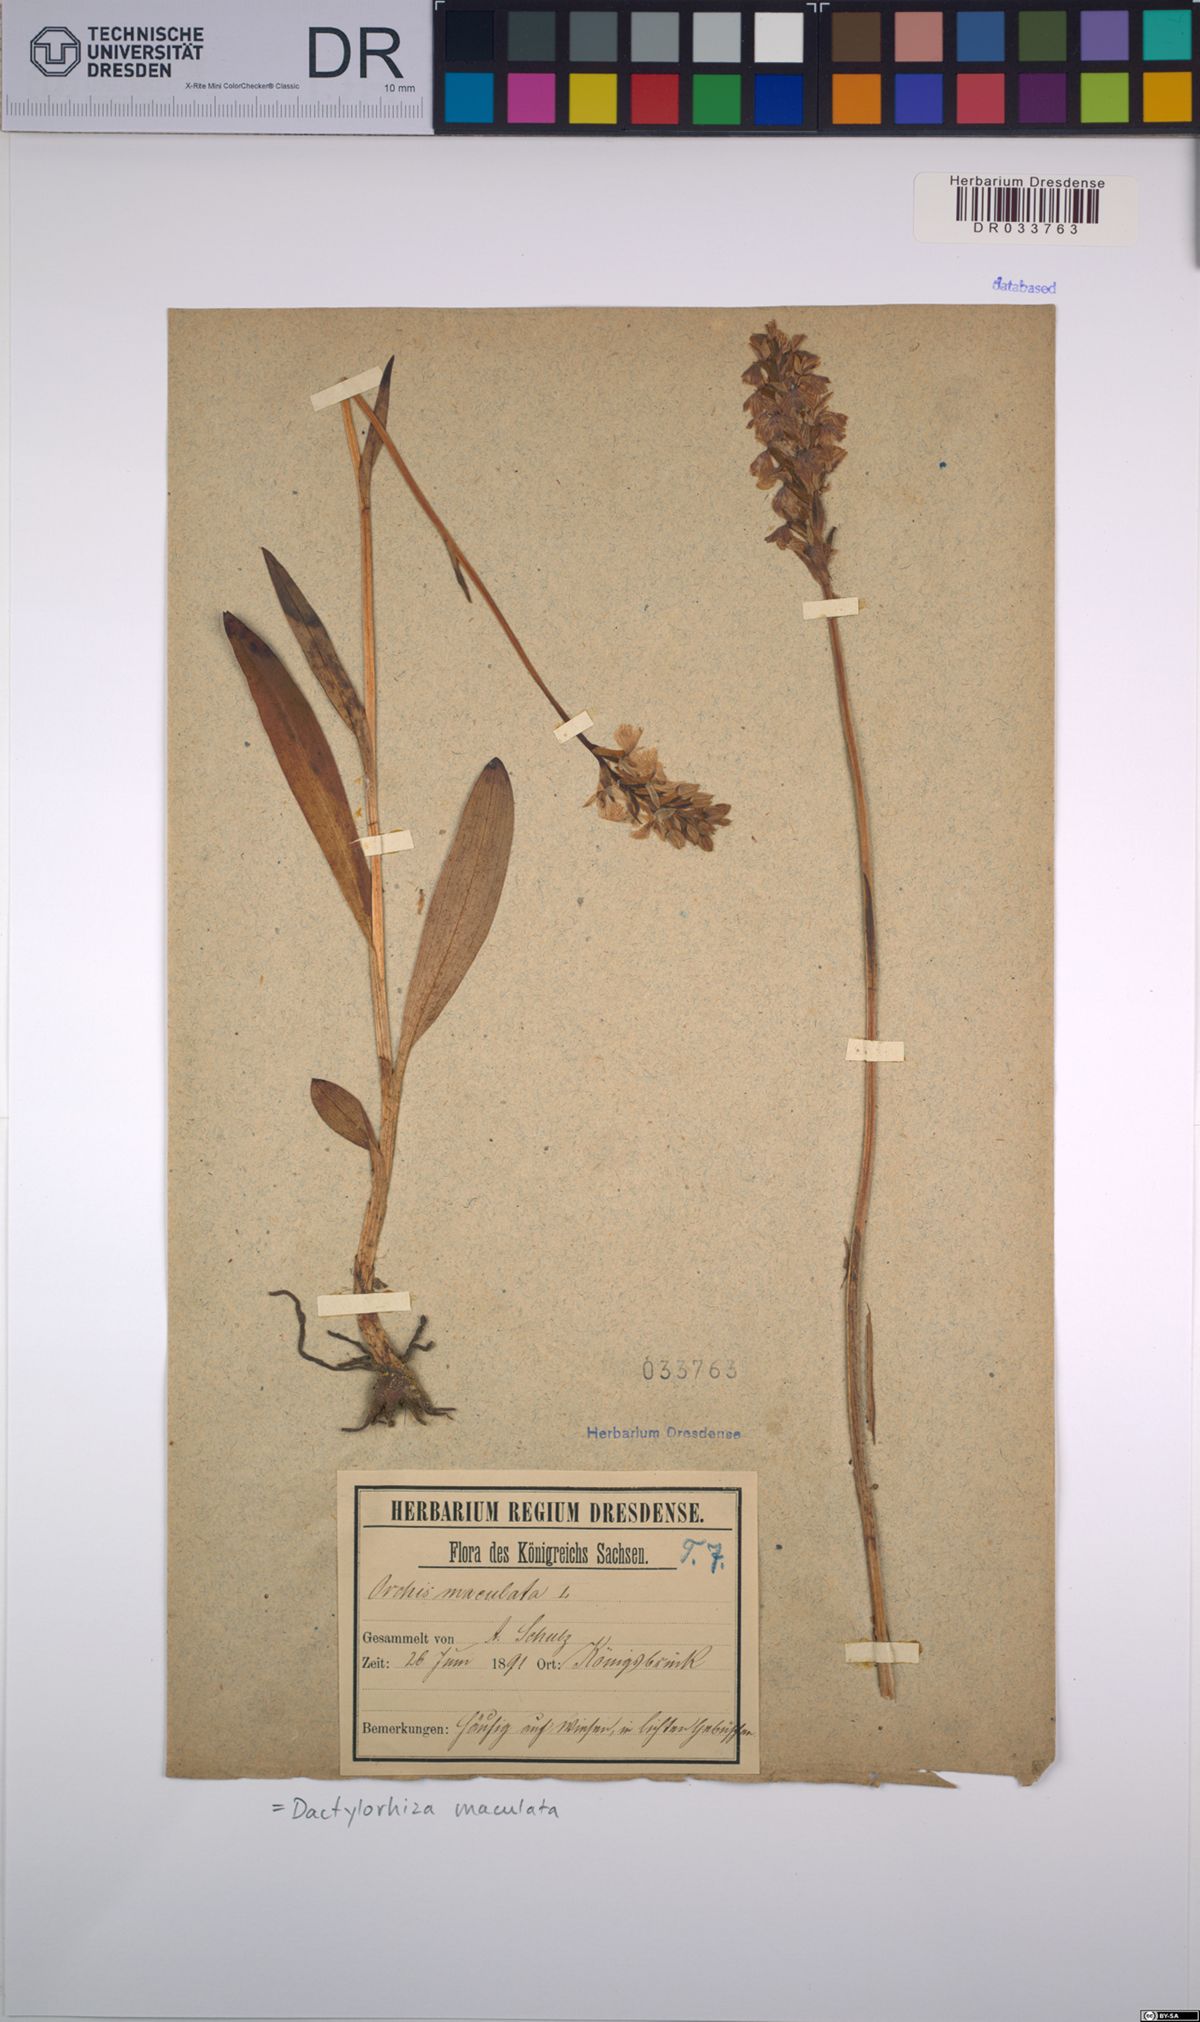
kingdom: Plantae
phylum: Tracheophyta
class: Liliopsida
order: Asparagales
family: Orchidaceae
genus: Dactylorhiza
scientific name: Dactylorhiza maculata
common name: Heath spotted-orchid
